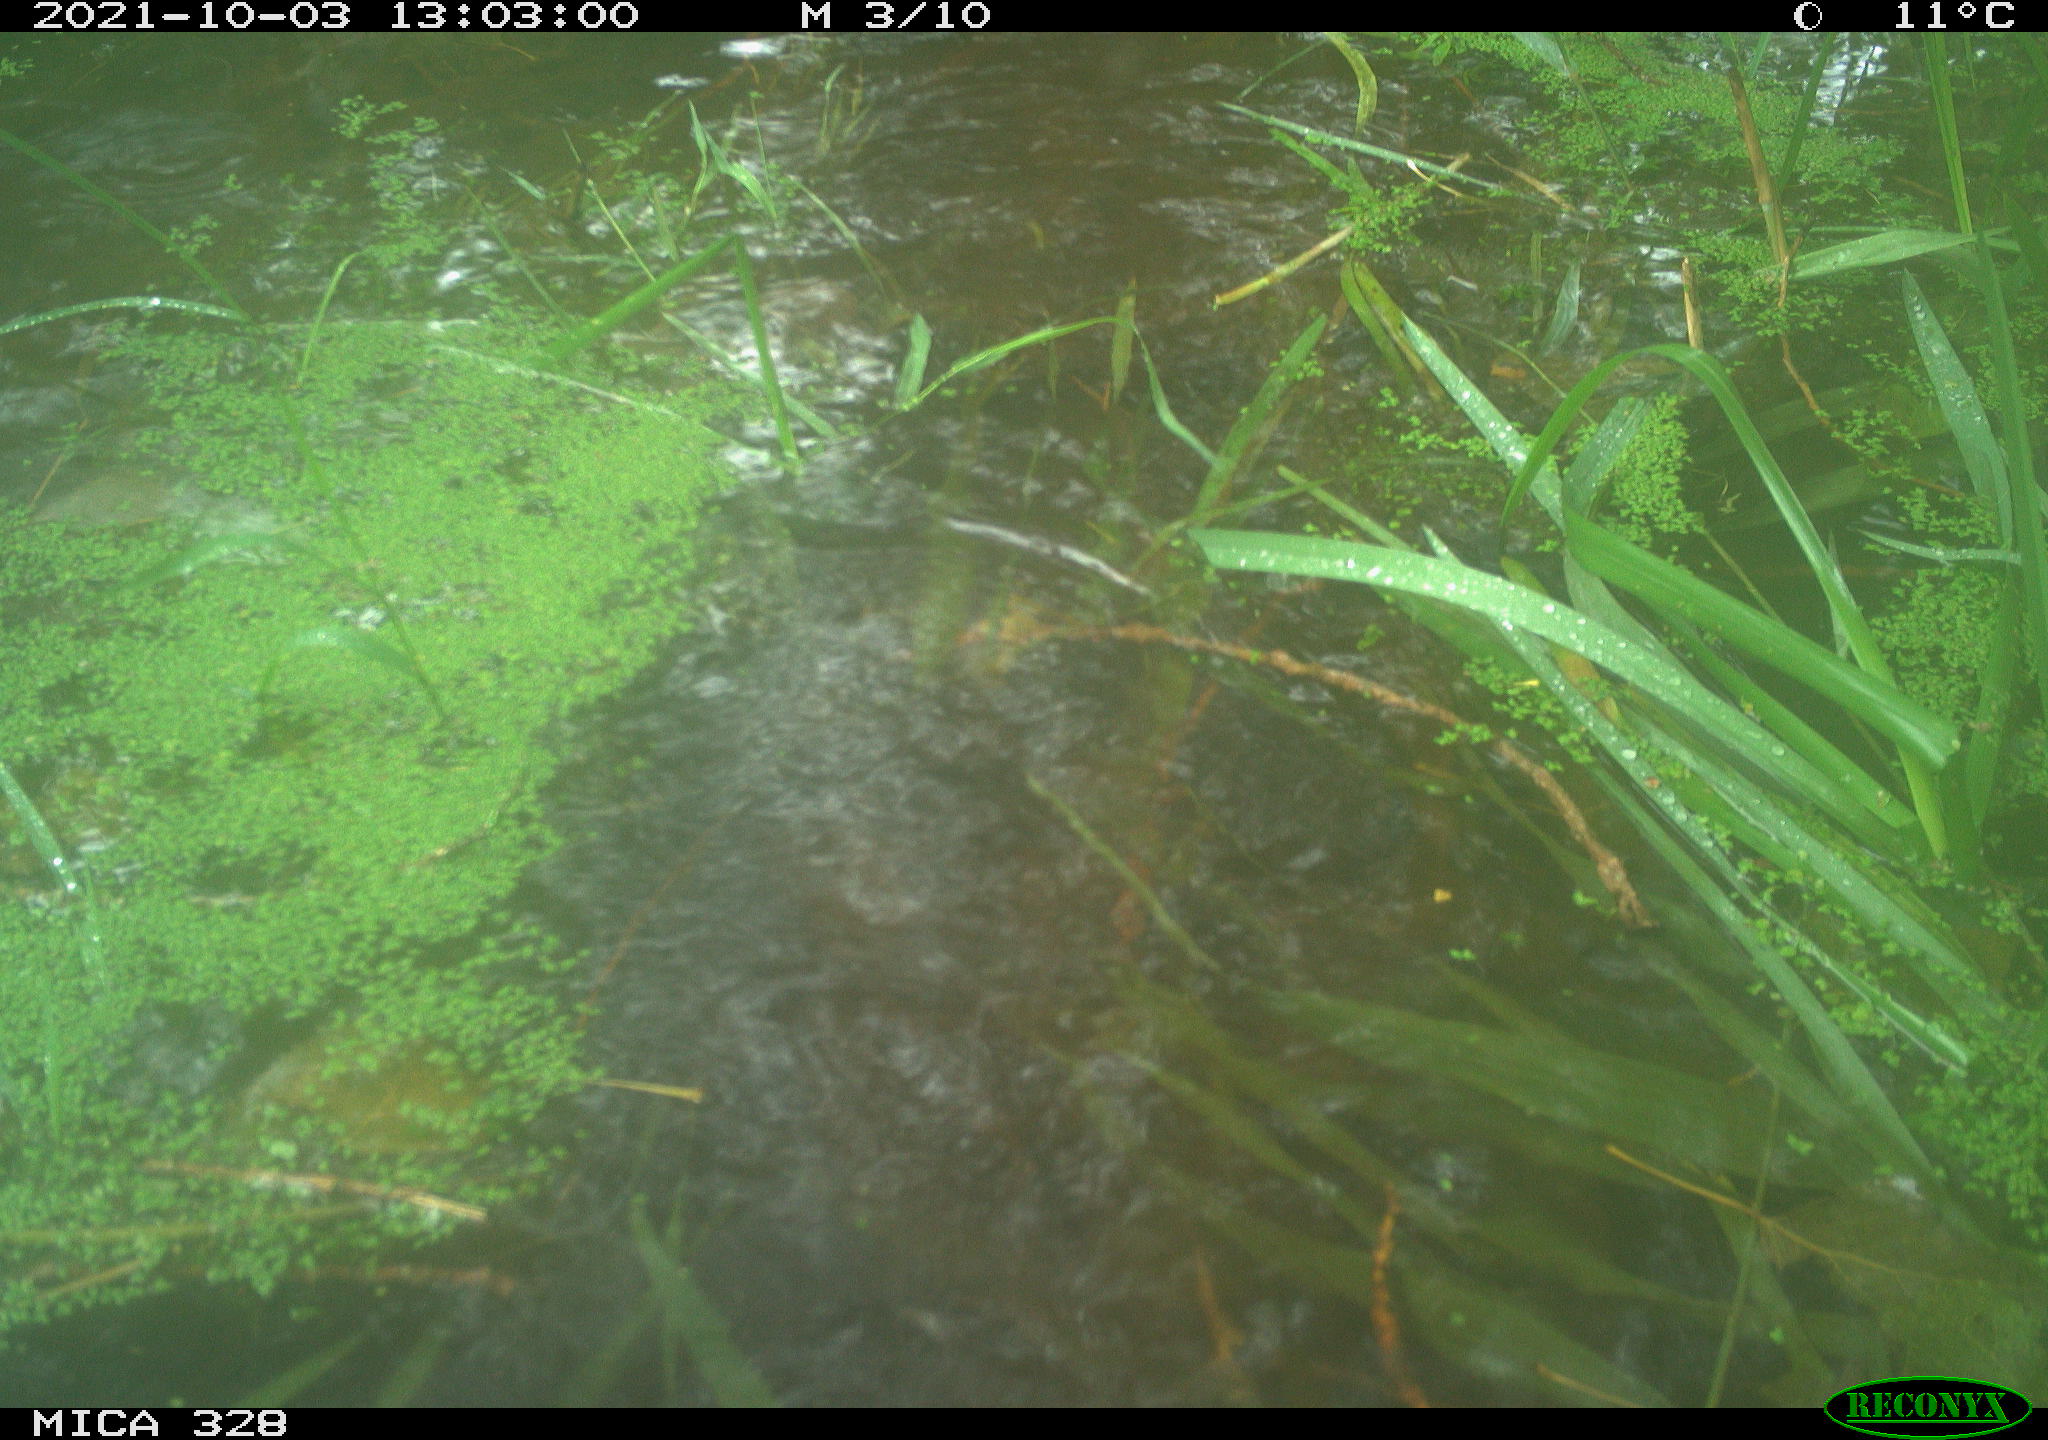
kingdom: Animalia
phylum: Chordata
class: Mammalia
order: Rodentia
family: Cricetidae
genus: Ondatra
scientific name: Ondatra zibethicus
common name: Muskrat
